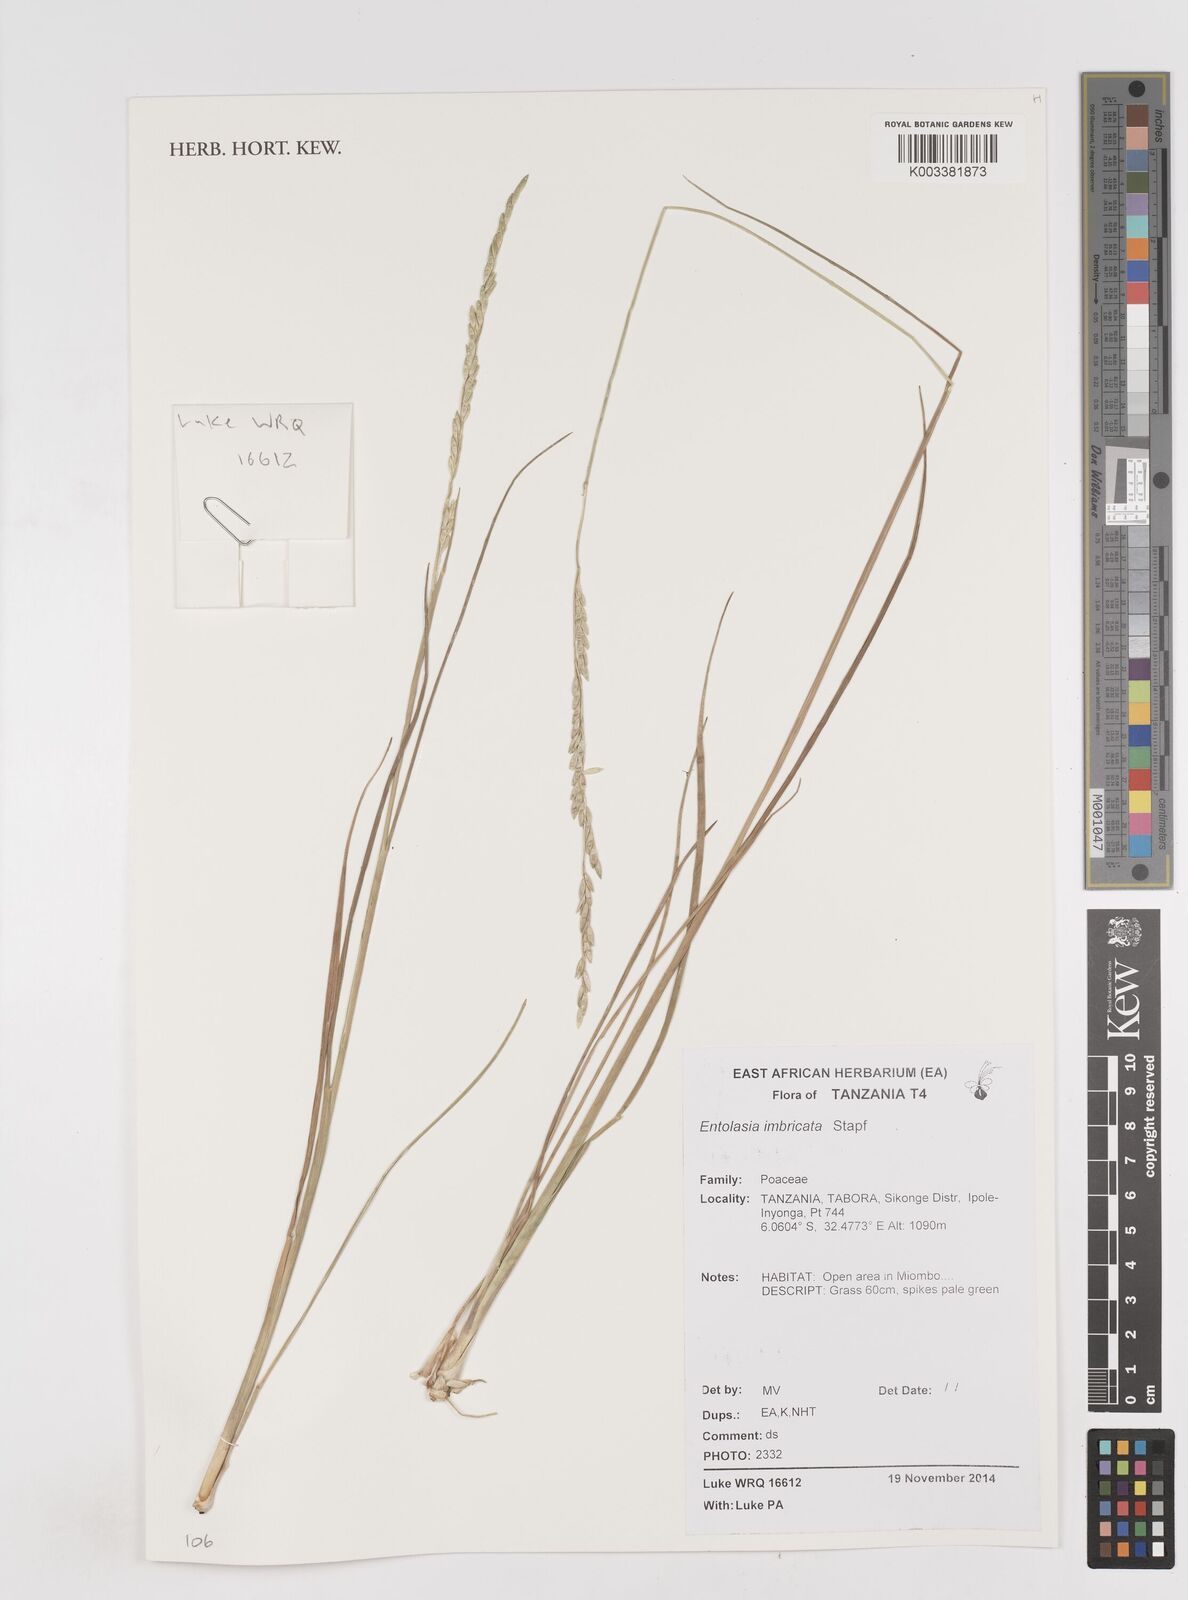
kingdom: Plantae
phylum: Tracheophyta
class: Liliopsida
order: Poales
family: Poaceae
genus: Entolasia
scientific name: Entolasia imbricata
